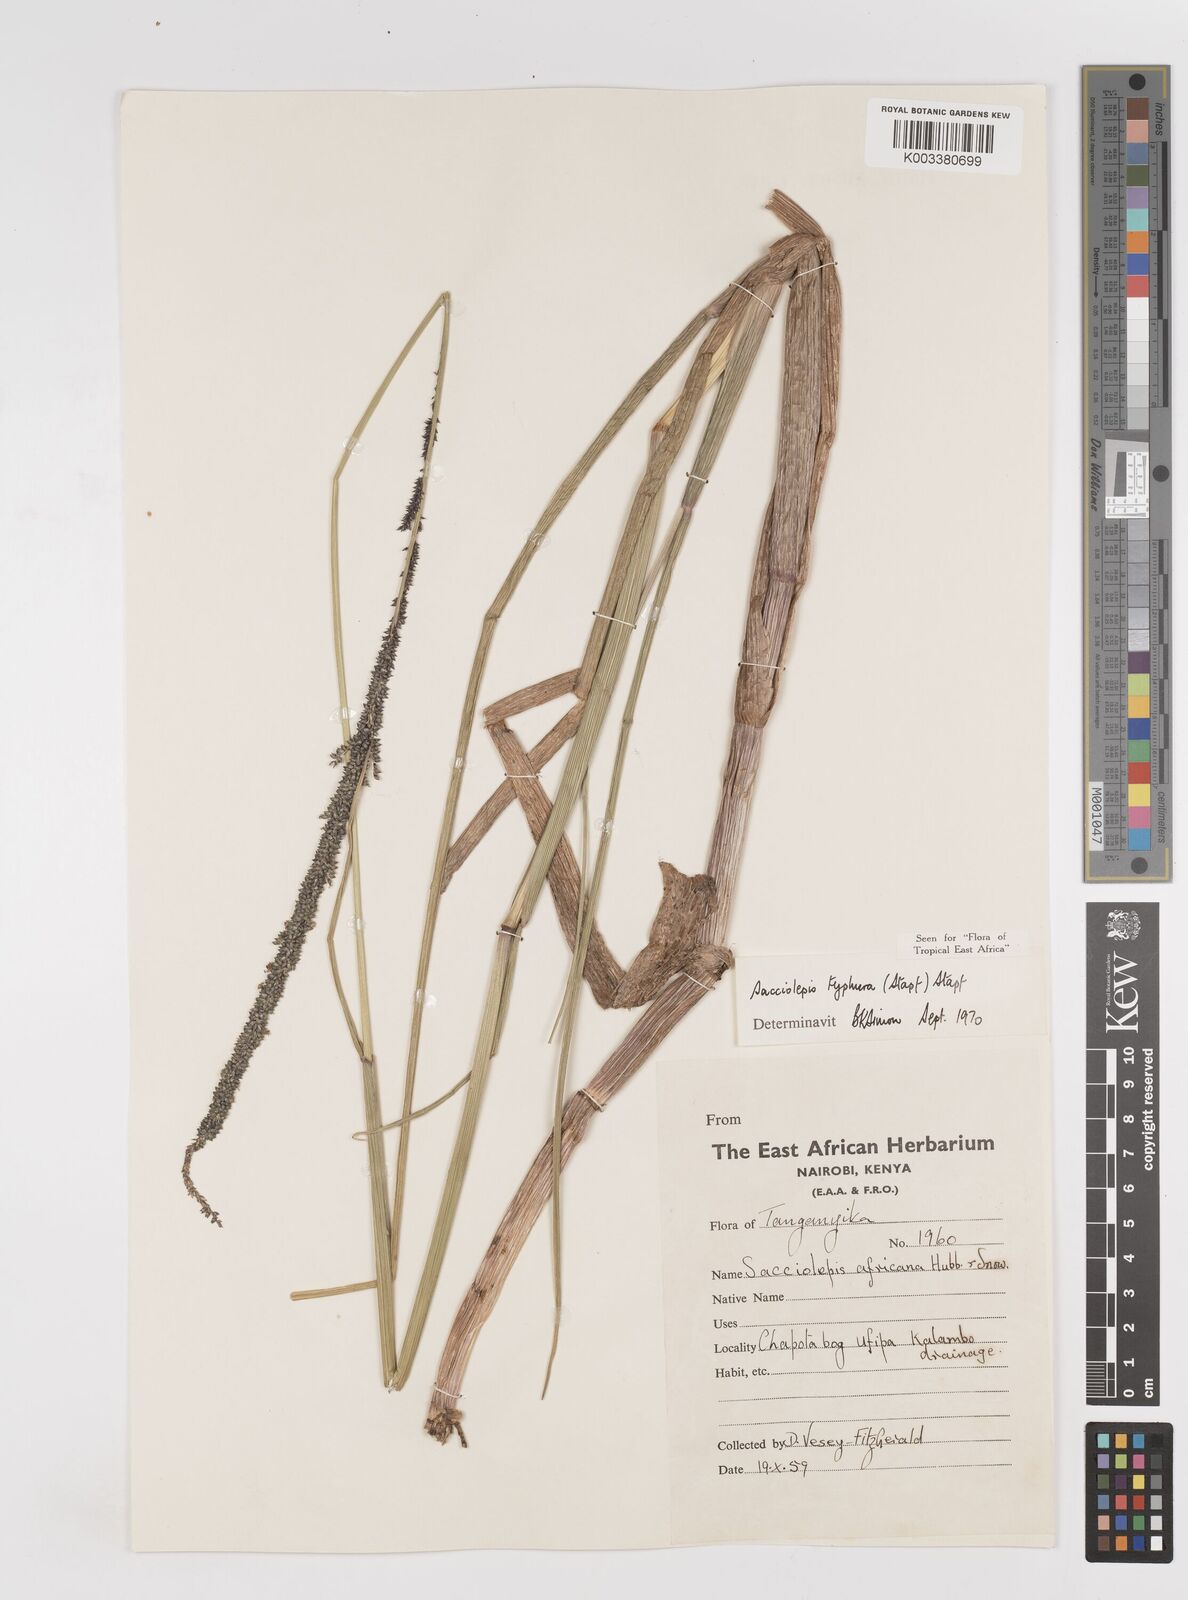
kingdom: Plantae
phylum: Tracheophyta
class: Liliopsida
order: Poales
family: Poaceae
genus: Sacciolepis
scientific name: Sacciolepis typhura
